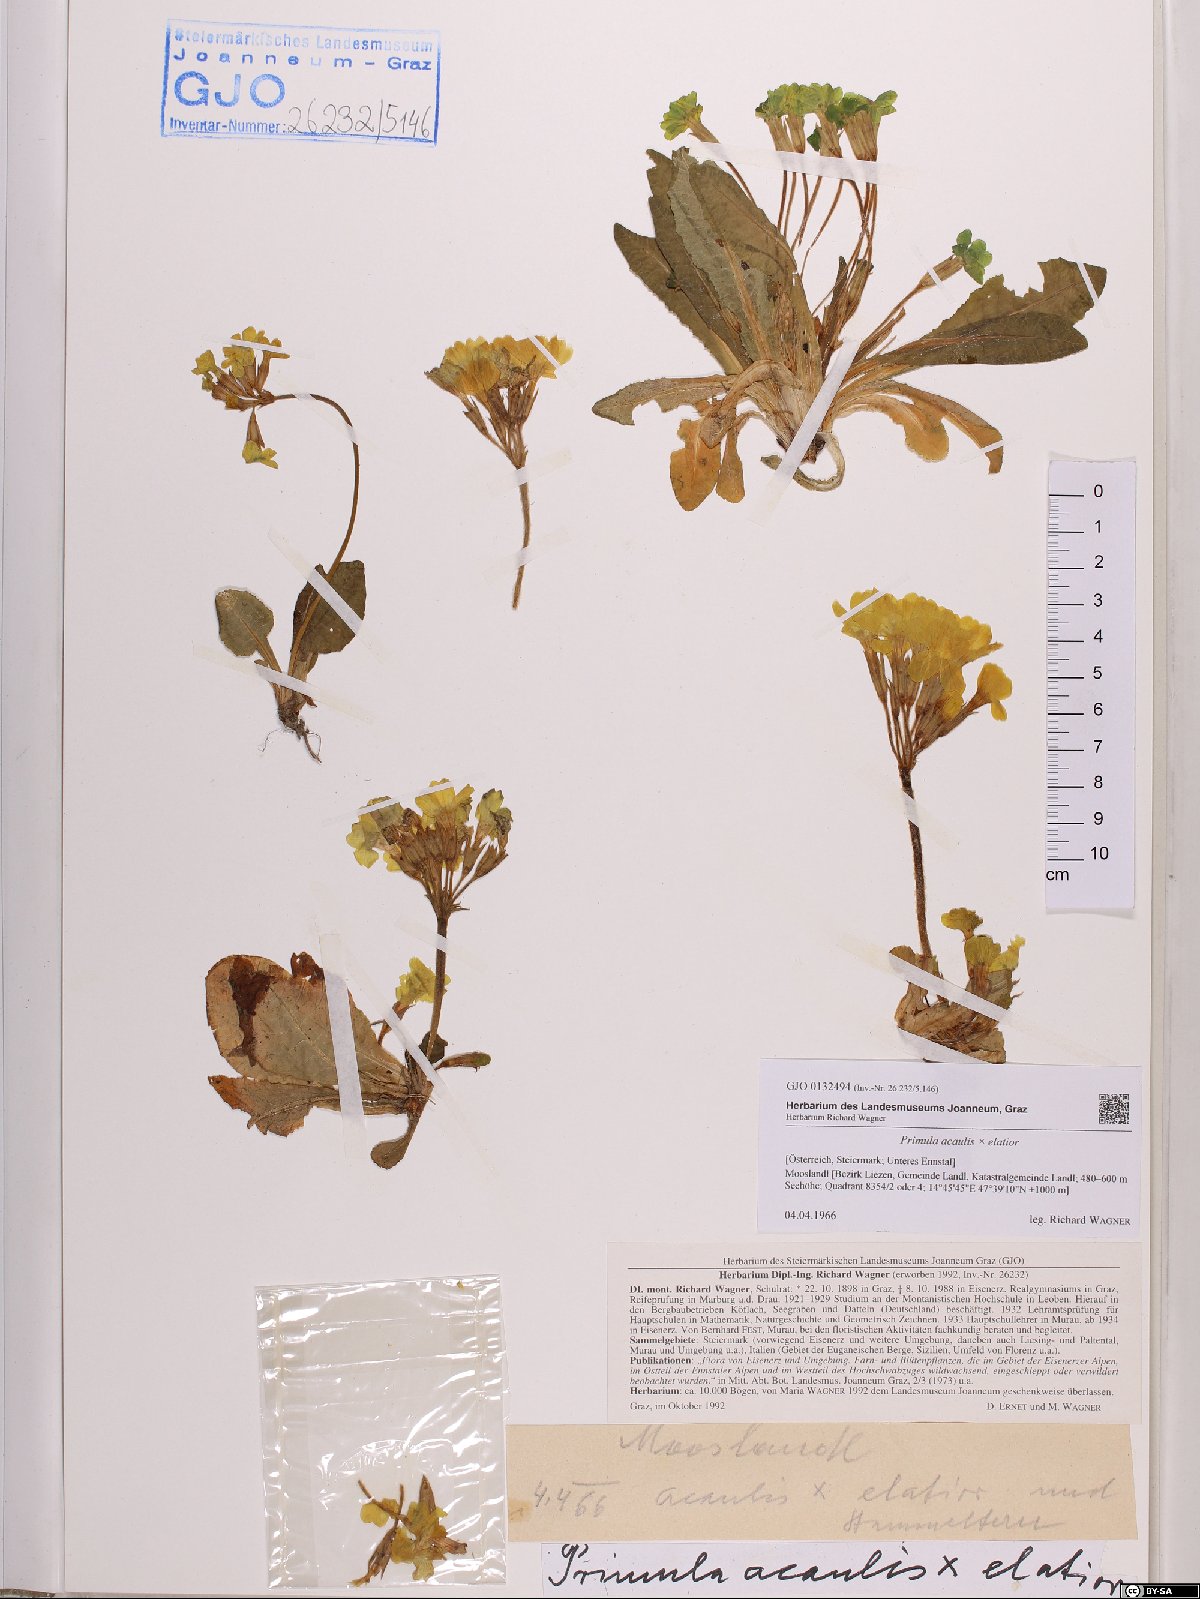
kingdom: Plantae
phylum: Tracheophyta
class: Magnoliopsida
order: Ericales
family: Primulaceae
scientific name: Primulaceae
